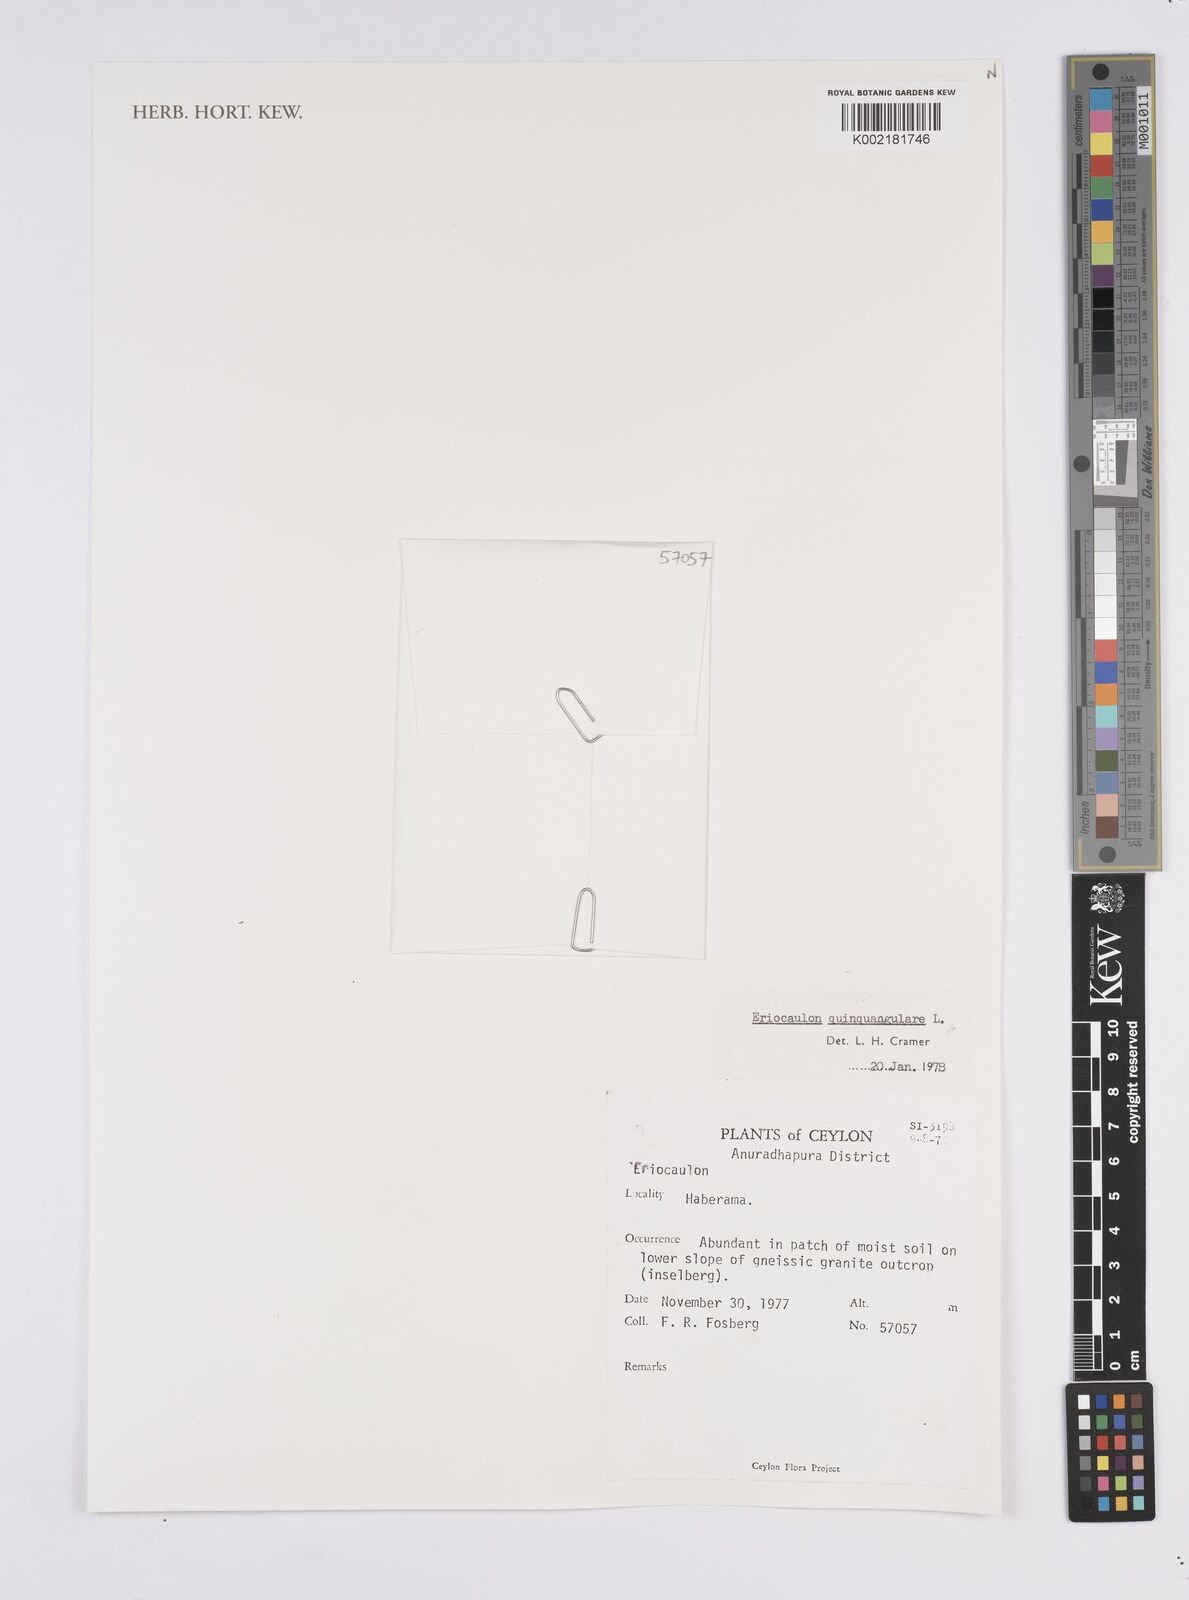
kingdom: Plantae
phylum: Tracheophyta
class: Liliopsida
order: Poales
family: Eriocaulaceae
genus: Eriocaulon
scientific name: Eriocaulon quinquangulare
